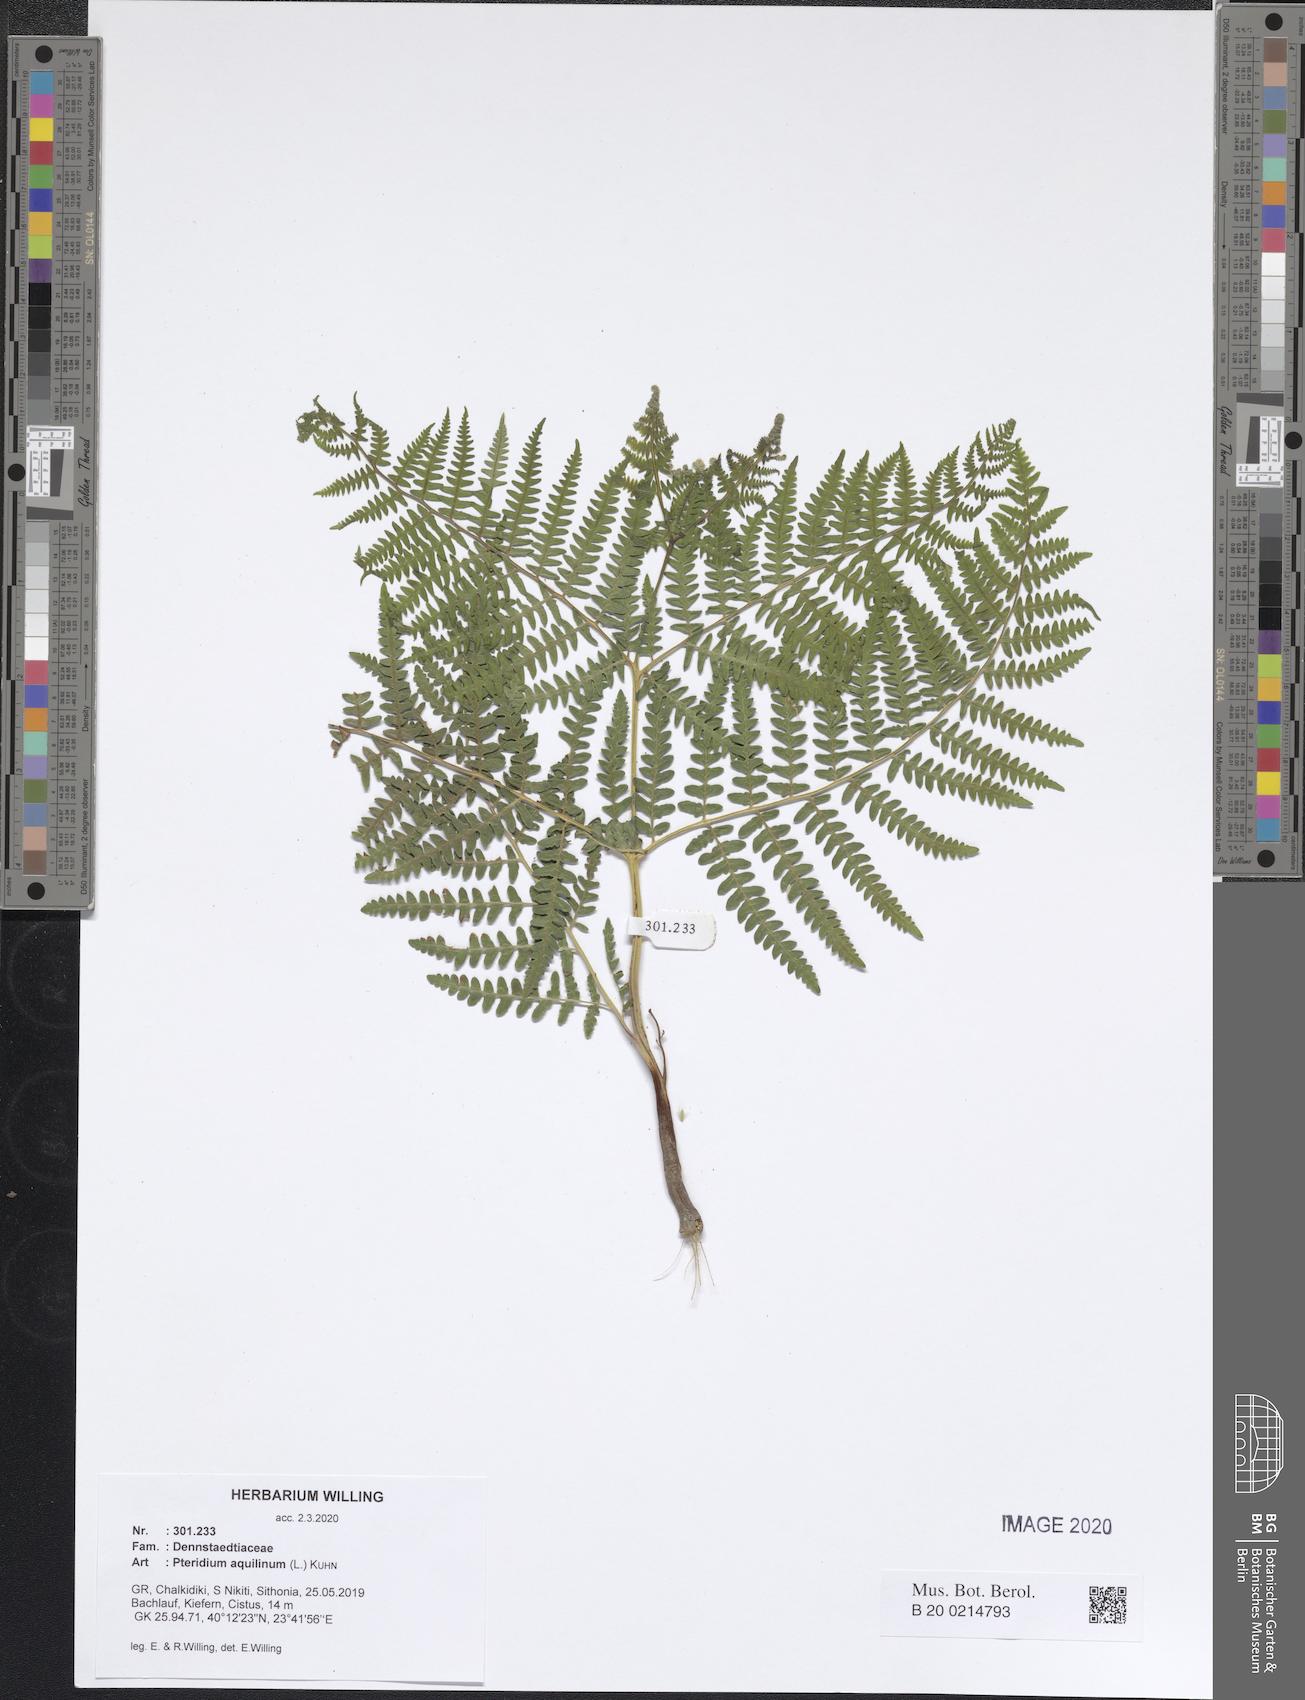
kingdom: Plantae
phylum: Tracheophyta
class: Polypodiopsida
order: Polypodiales
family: Dennstaedtiaceae
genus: Pteridium
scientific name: Pteridium aquilinum
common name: Bracken
